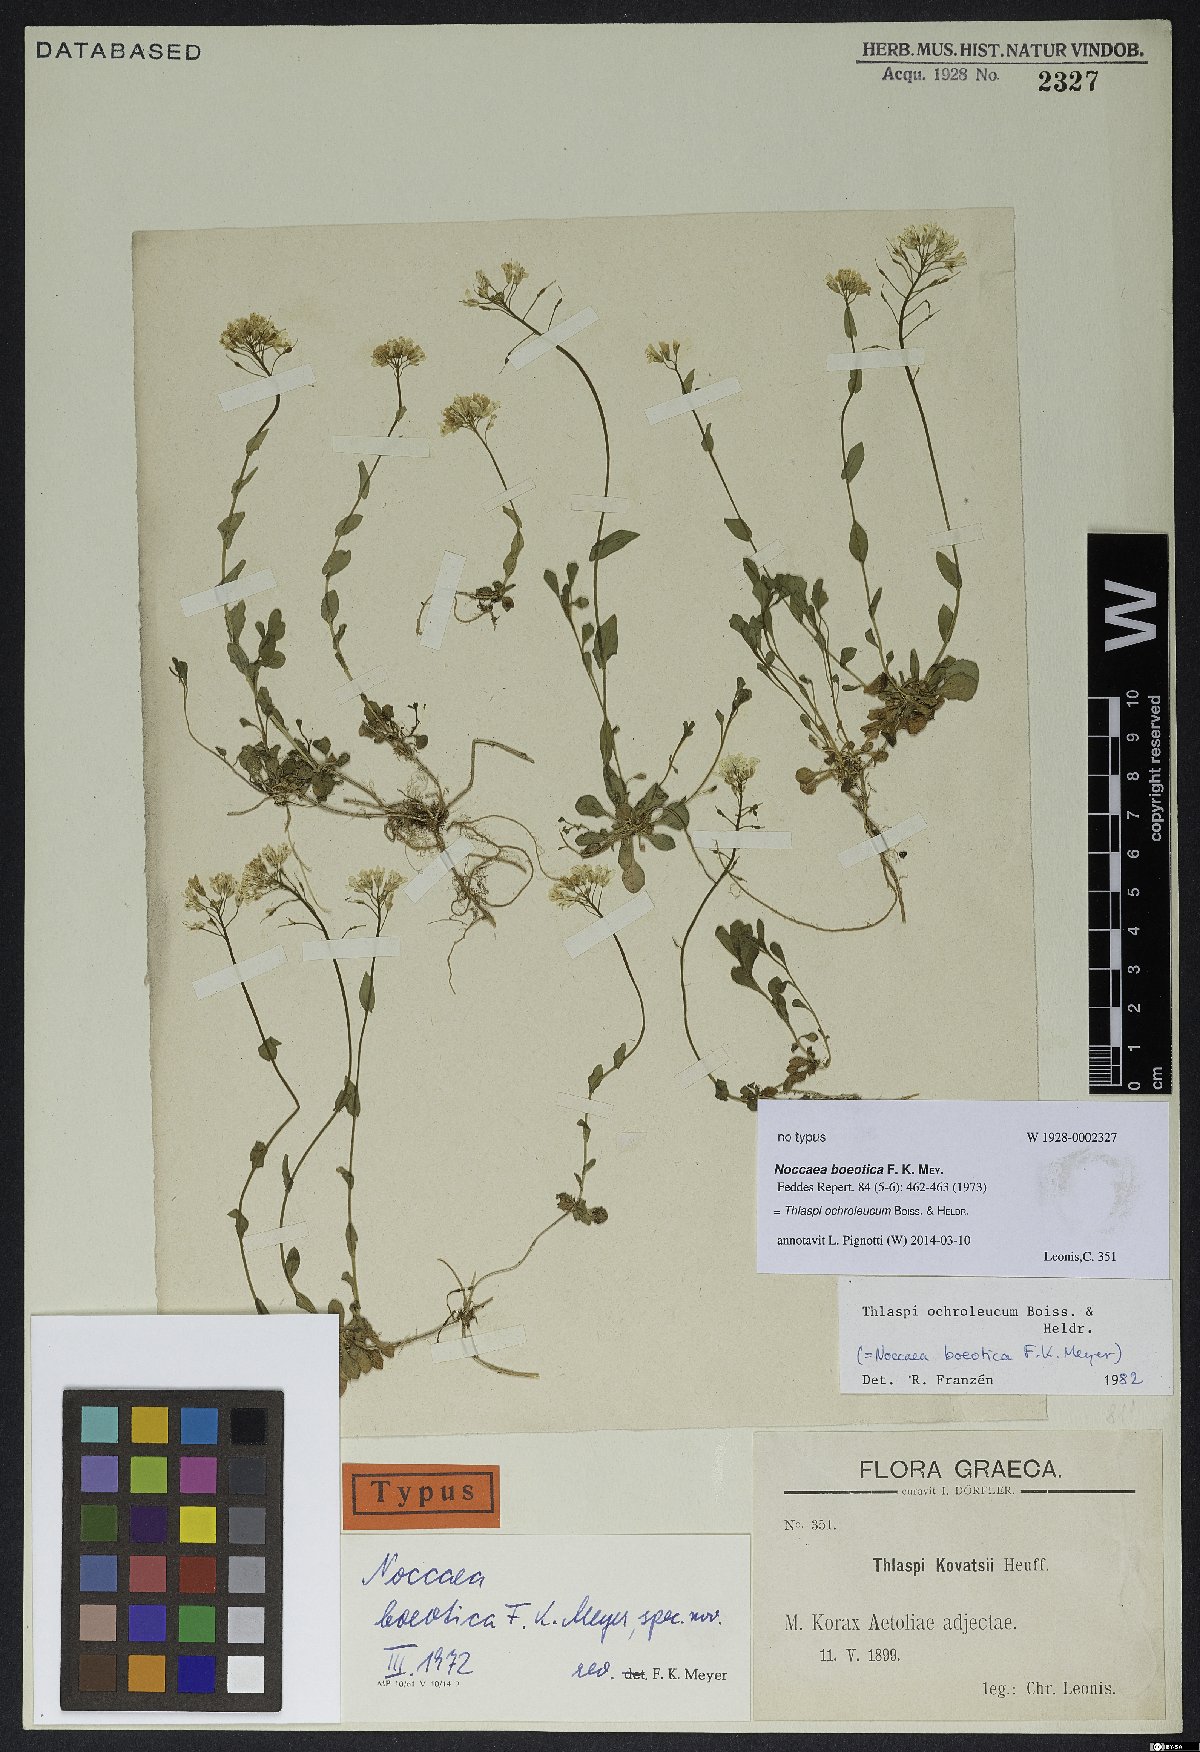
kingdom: Plantae
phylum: Tracheophyta
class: Magnoliopsida
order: Brassicales
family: Brassicaceae
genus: Noccaea
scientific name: Noccaea ochroleuca
